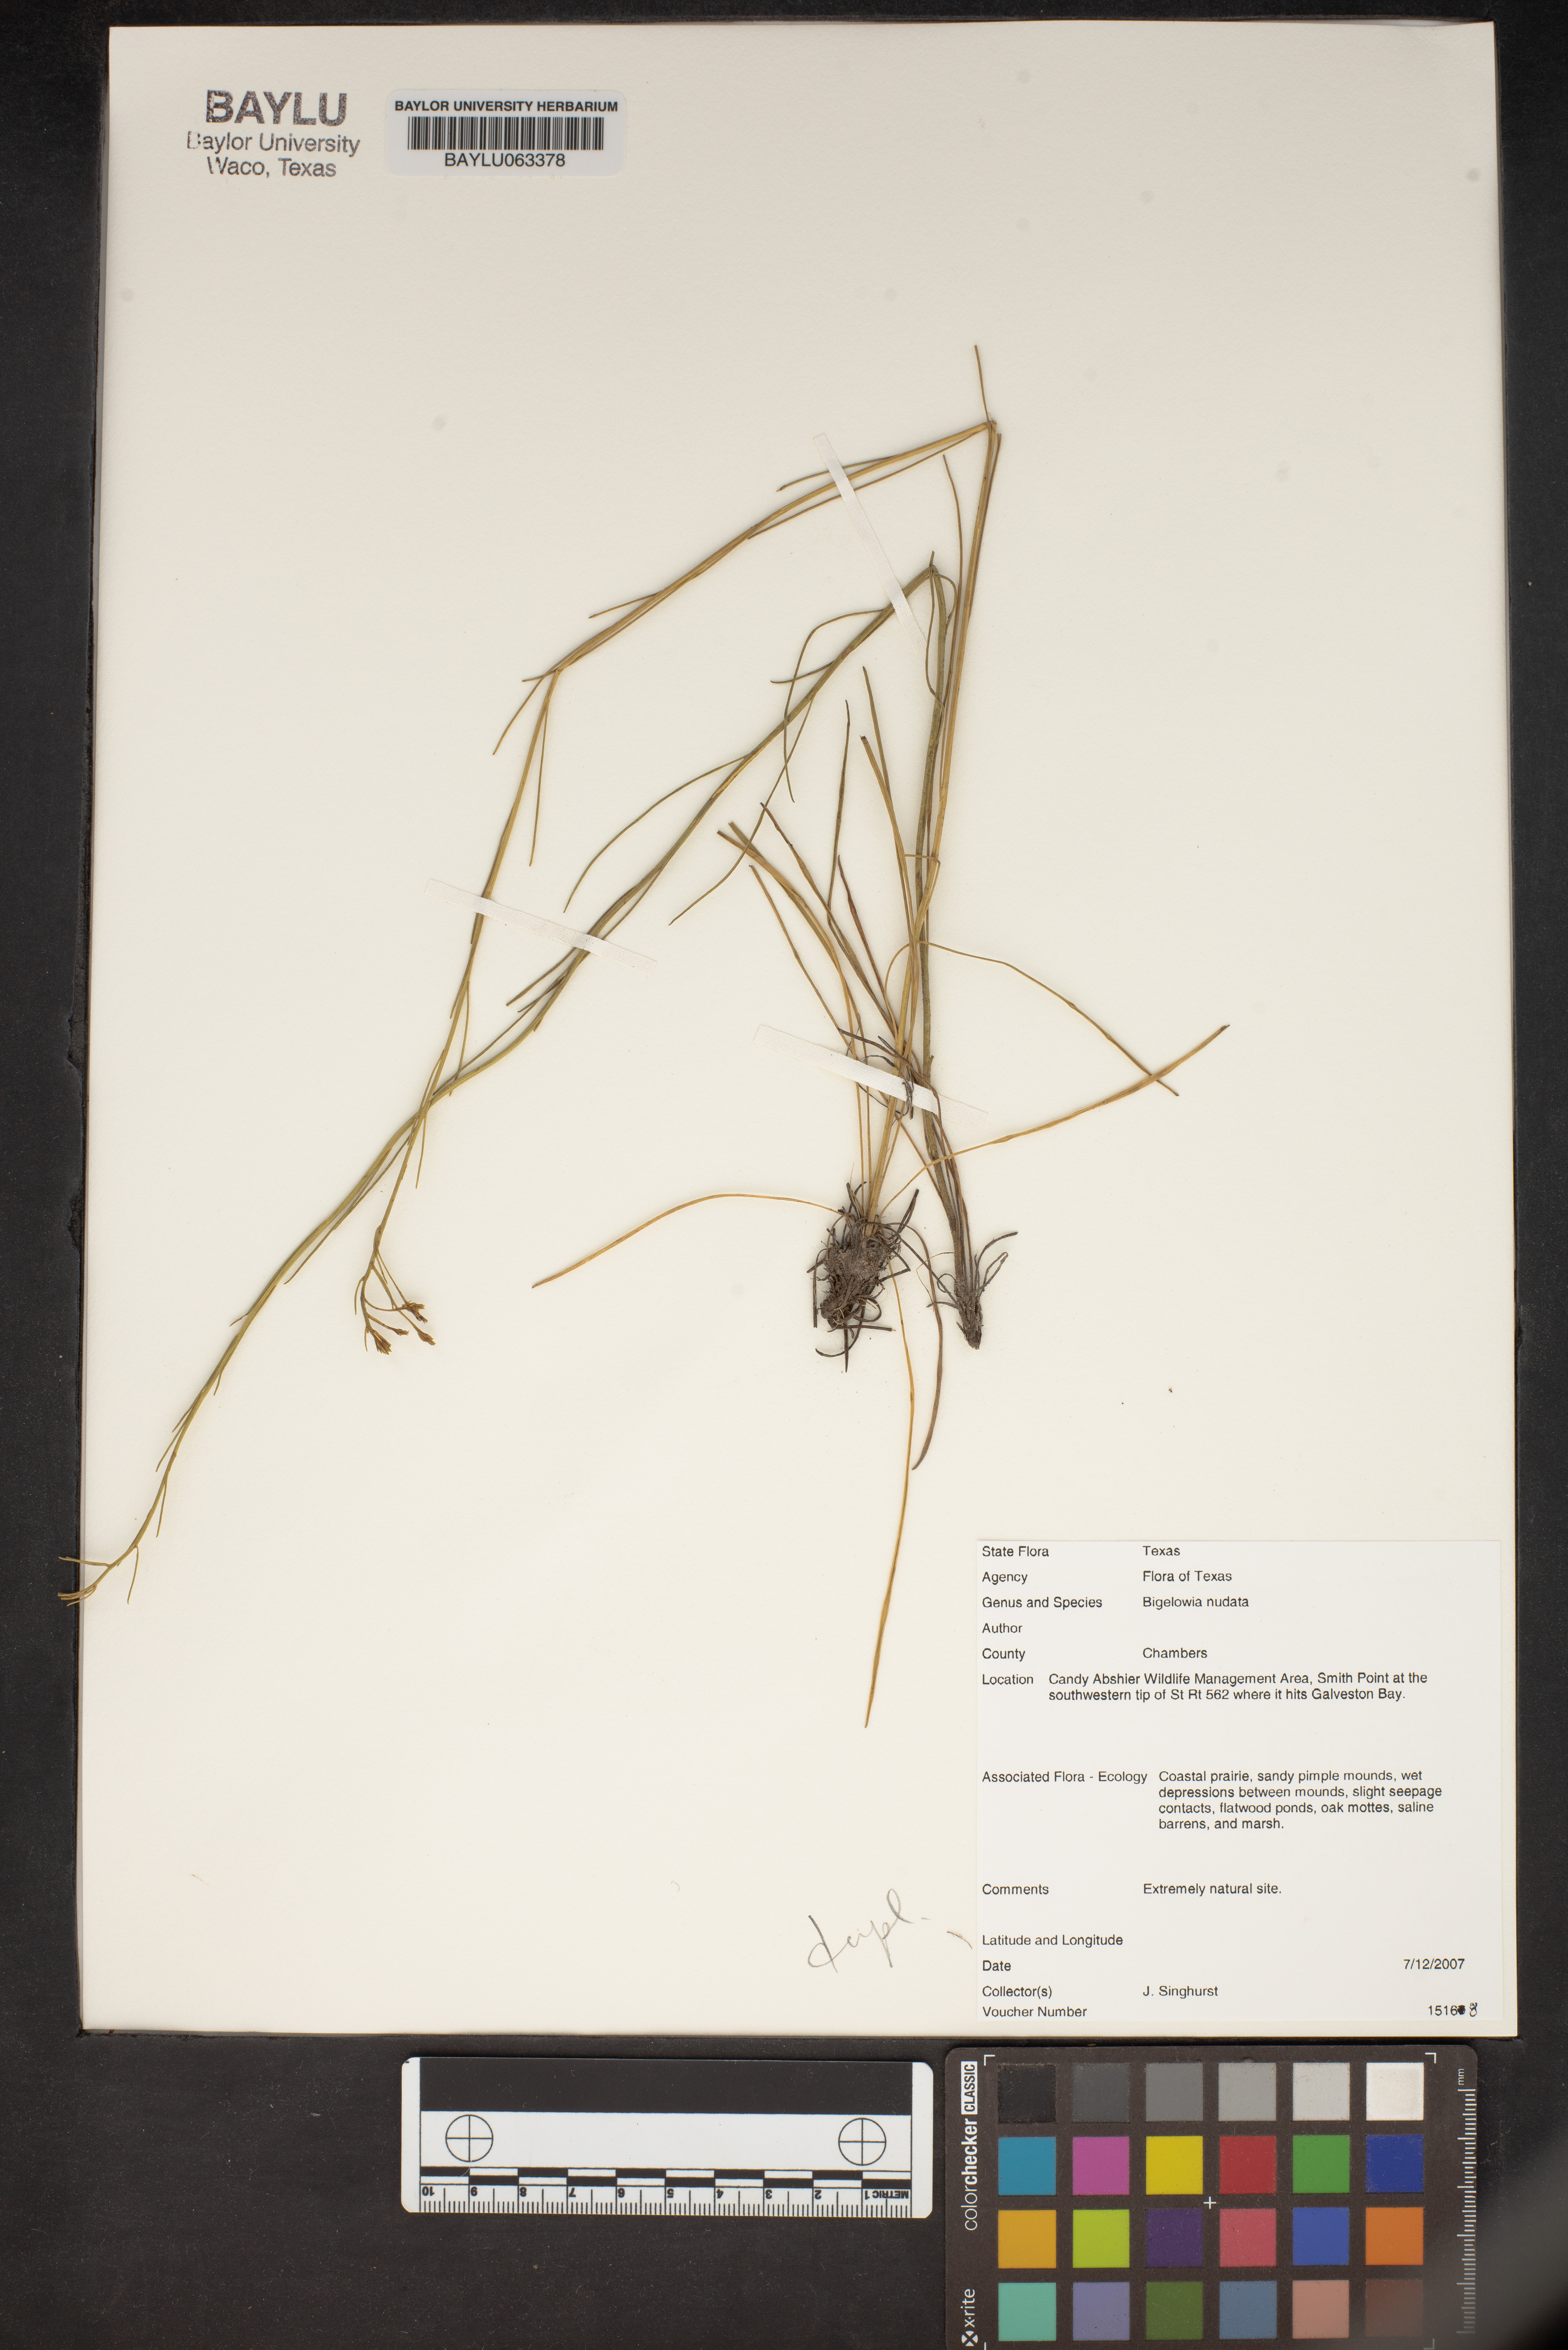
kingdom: Plantae
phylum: Tracheophyta
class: Magnoliopsida
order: Asterales
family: Asteraceae
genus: Bigelowia
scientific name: Bigelowia nudata
